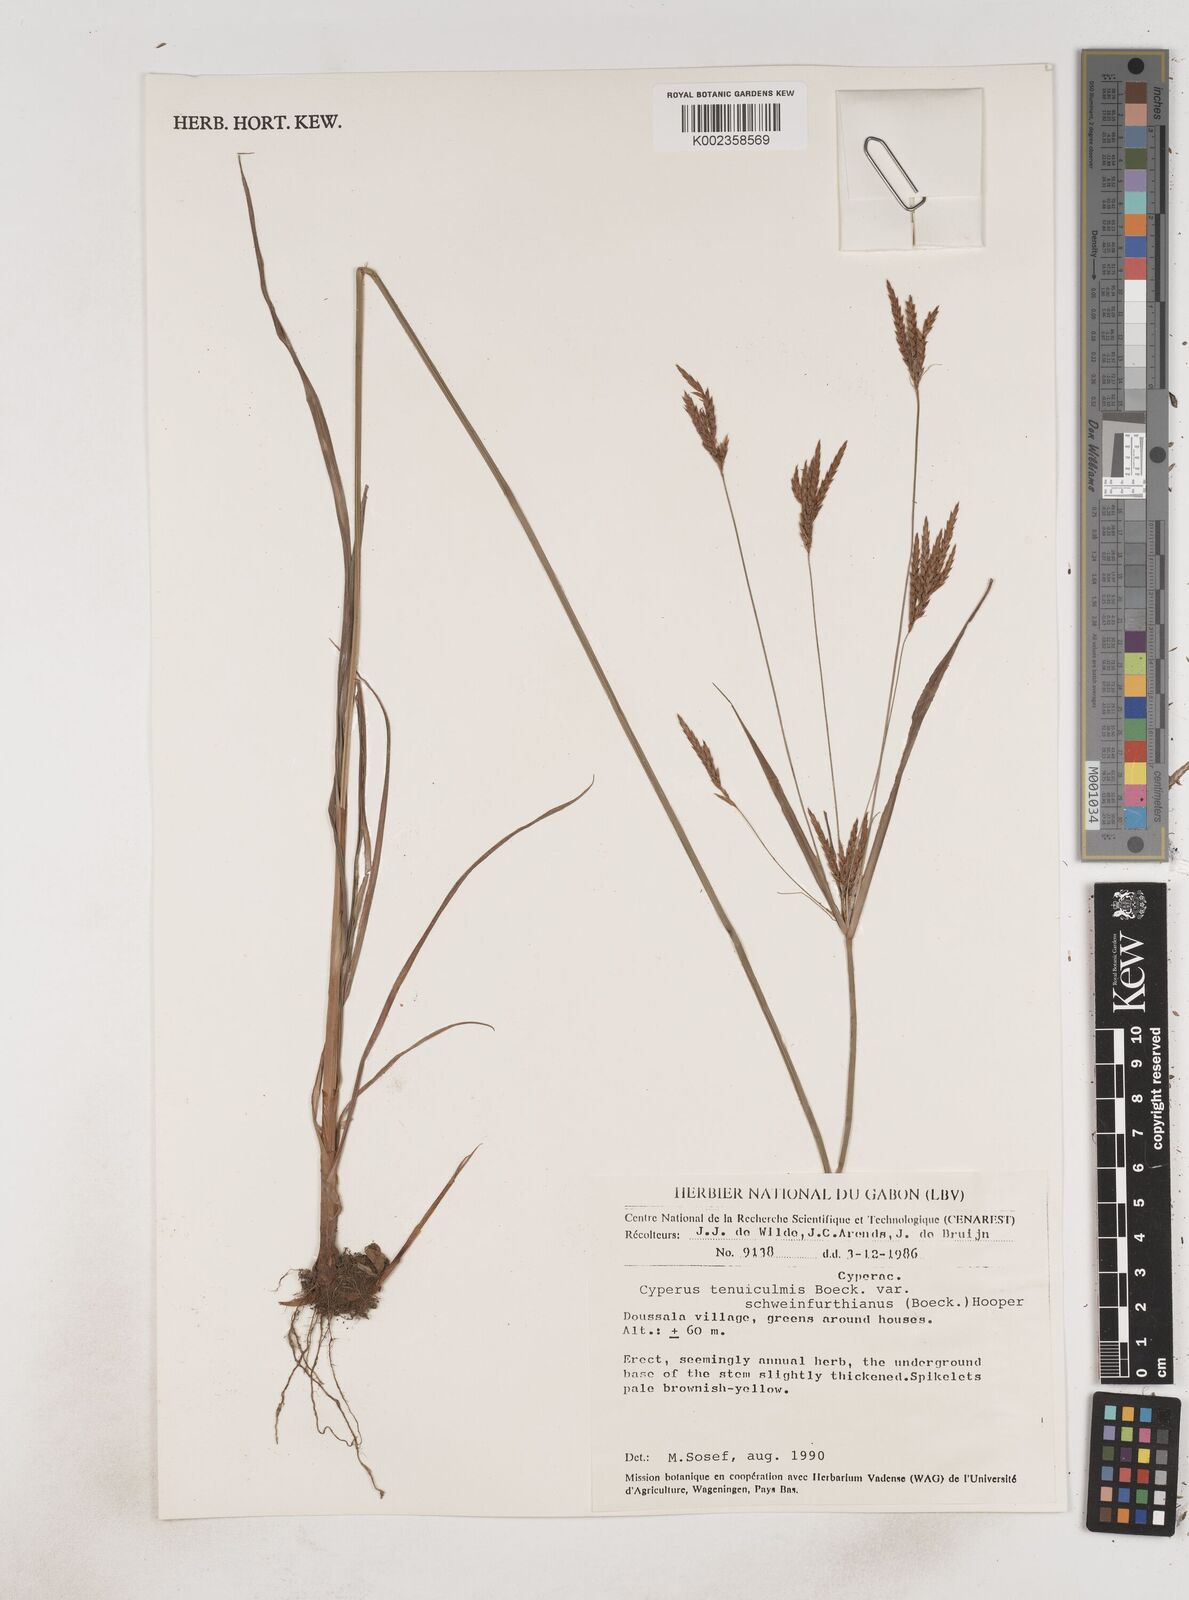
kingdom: Plantae
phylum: Tracheophyta
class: Liliopsida
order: Poales
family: Cyperaceae
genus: Cyperus
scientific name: Cyperus tenuiculmis
